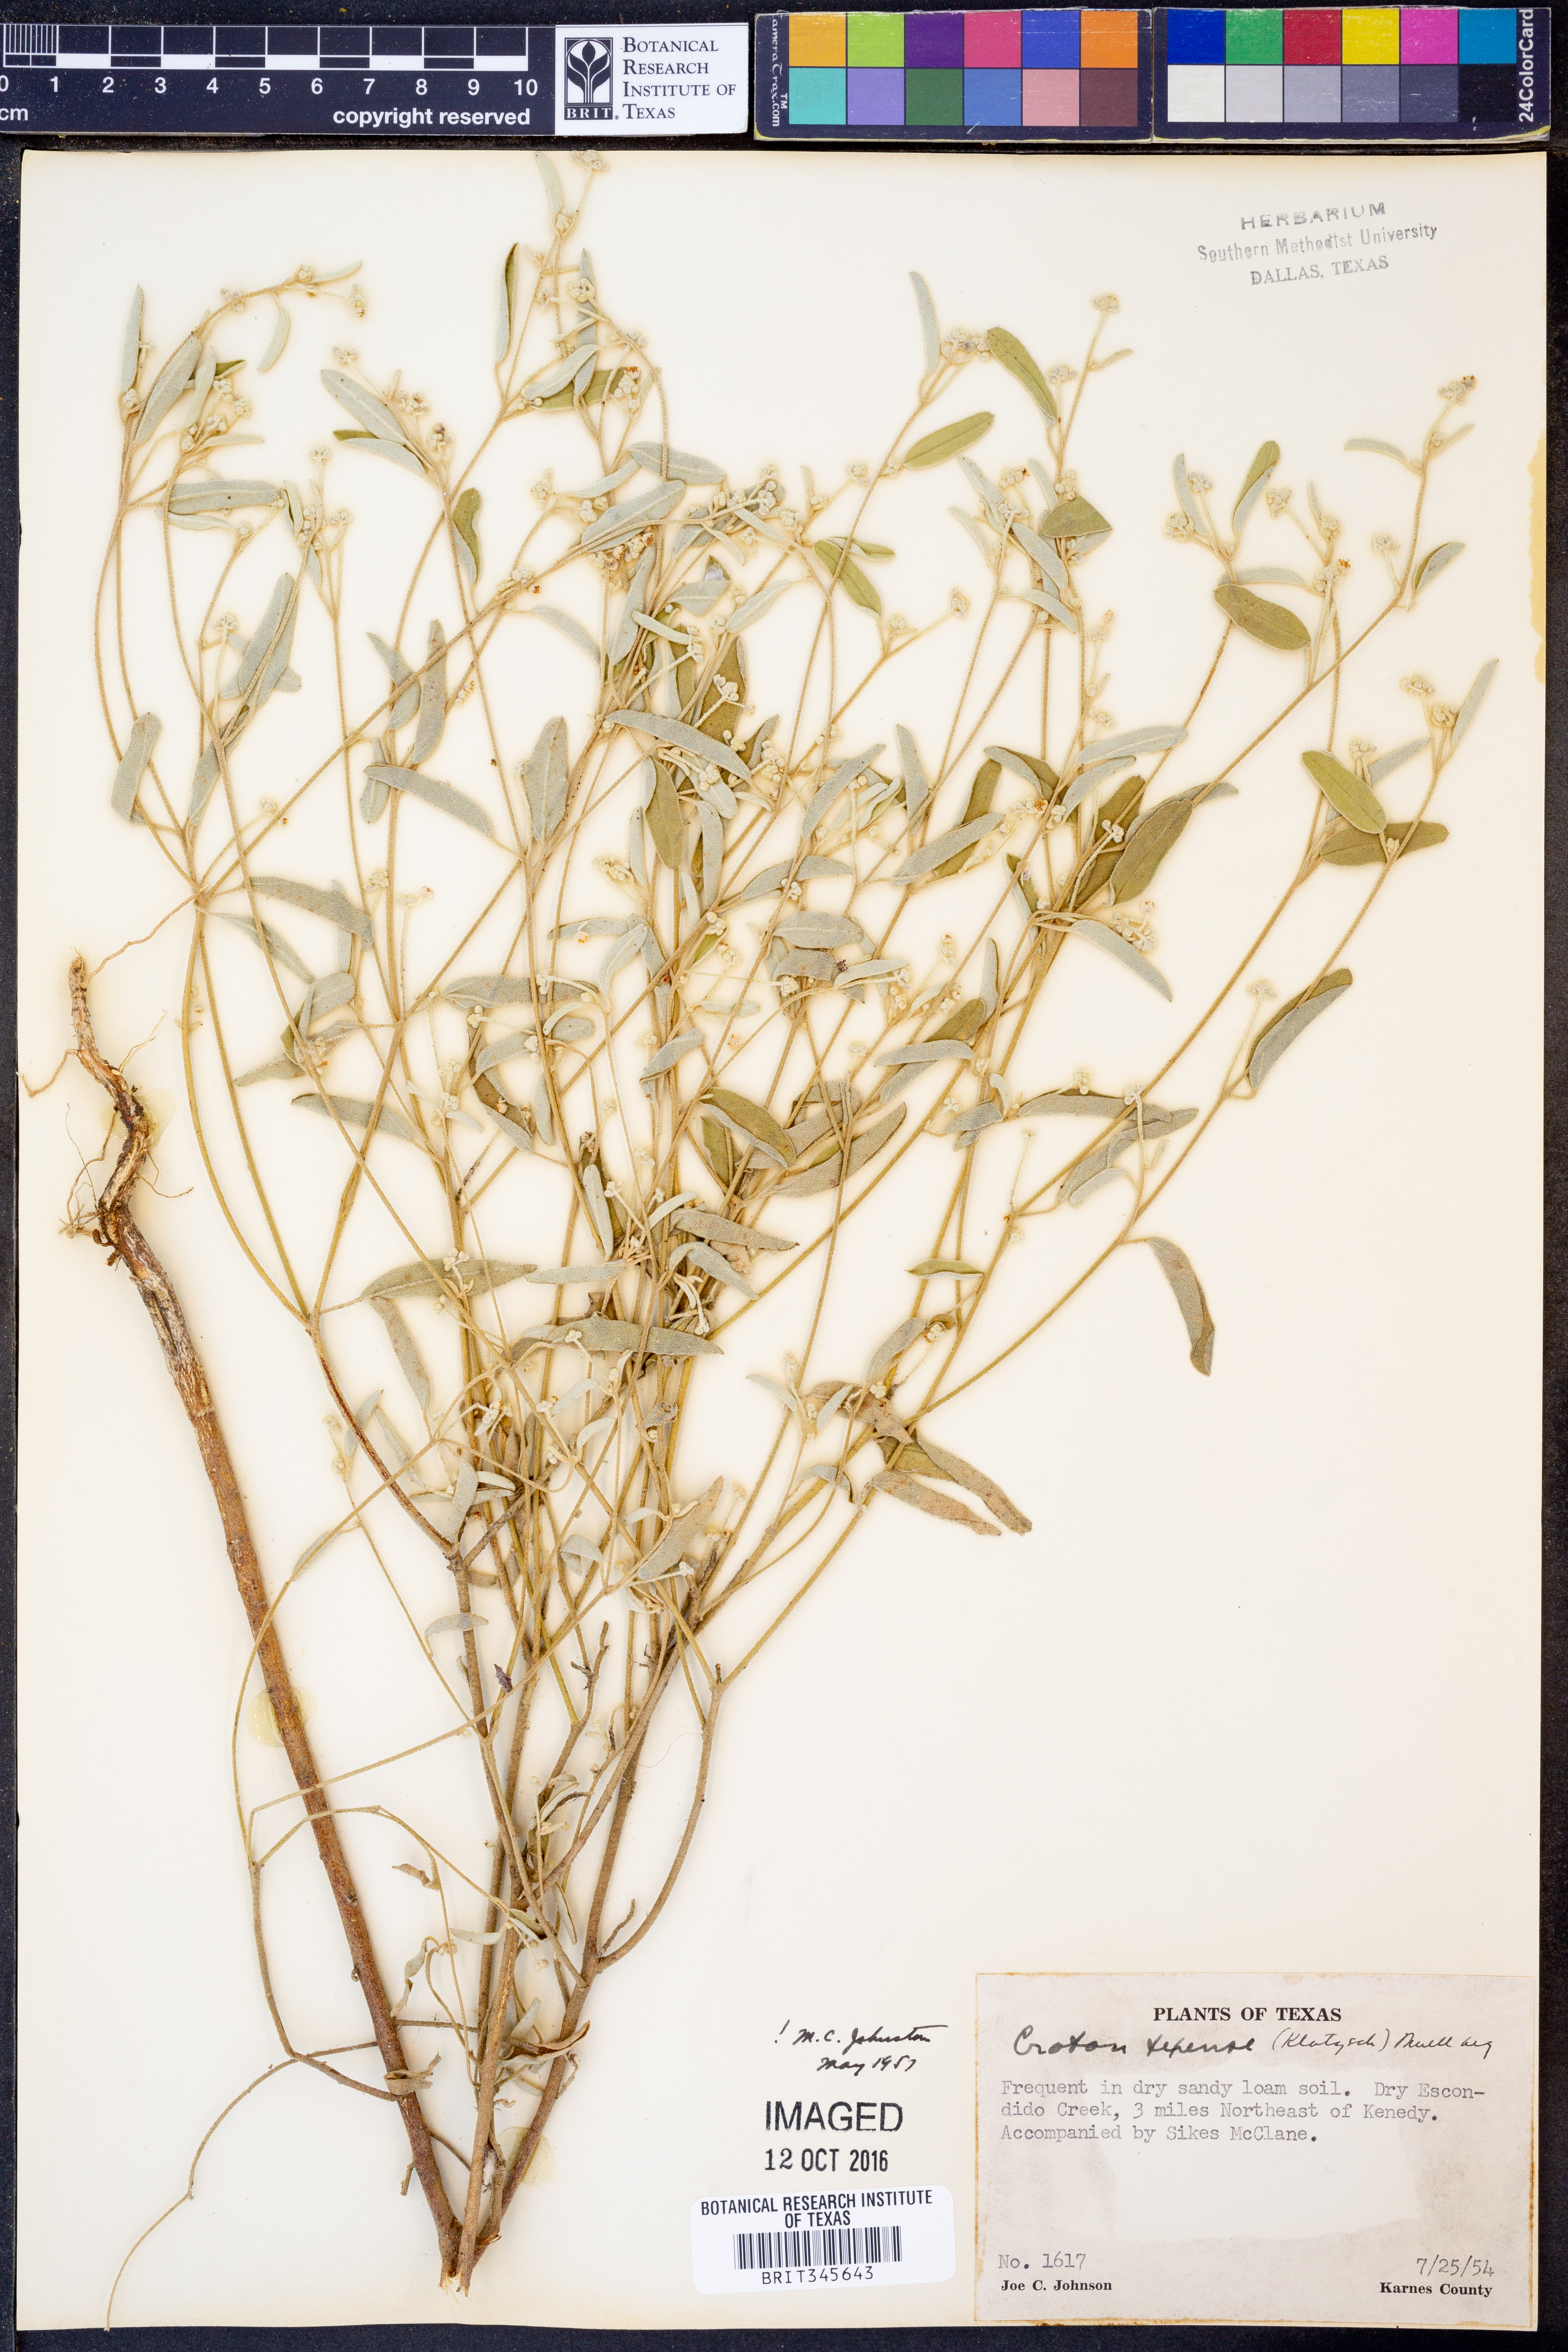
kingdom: Plantae
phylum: Tracheophyta
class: Magnoliopsida
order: Malpighiales
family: Euphorbiaceae
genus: Croton
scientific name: Croton texensis
